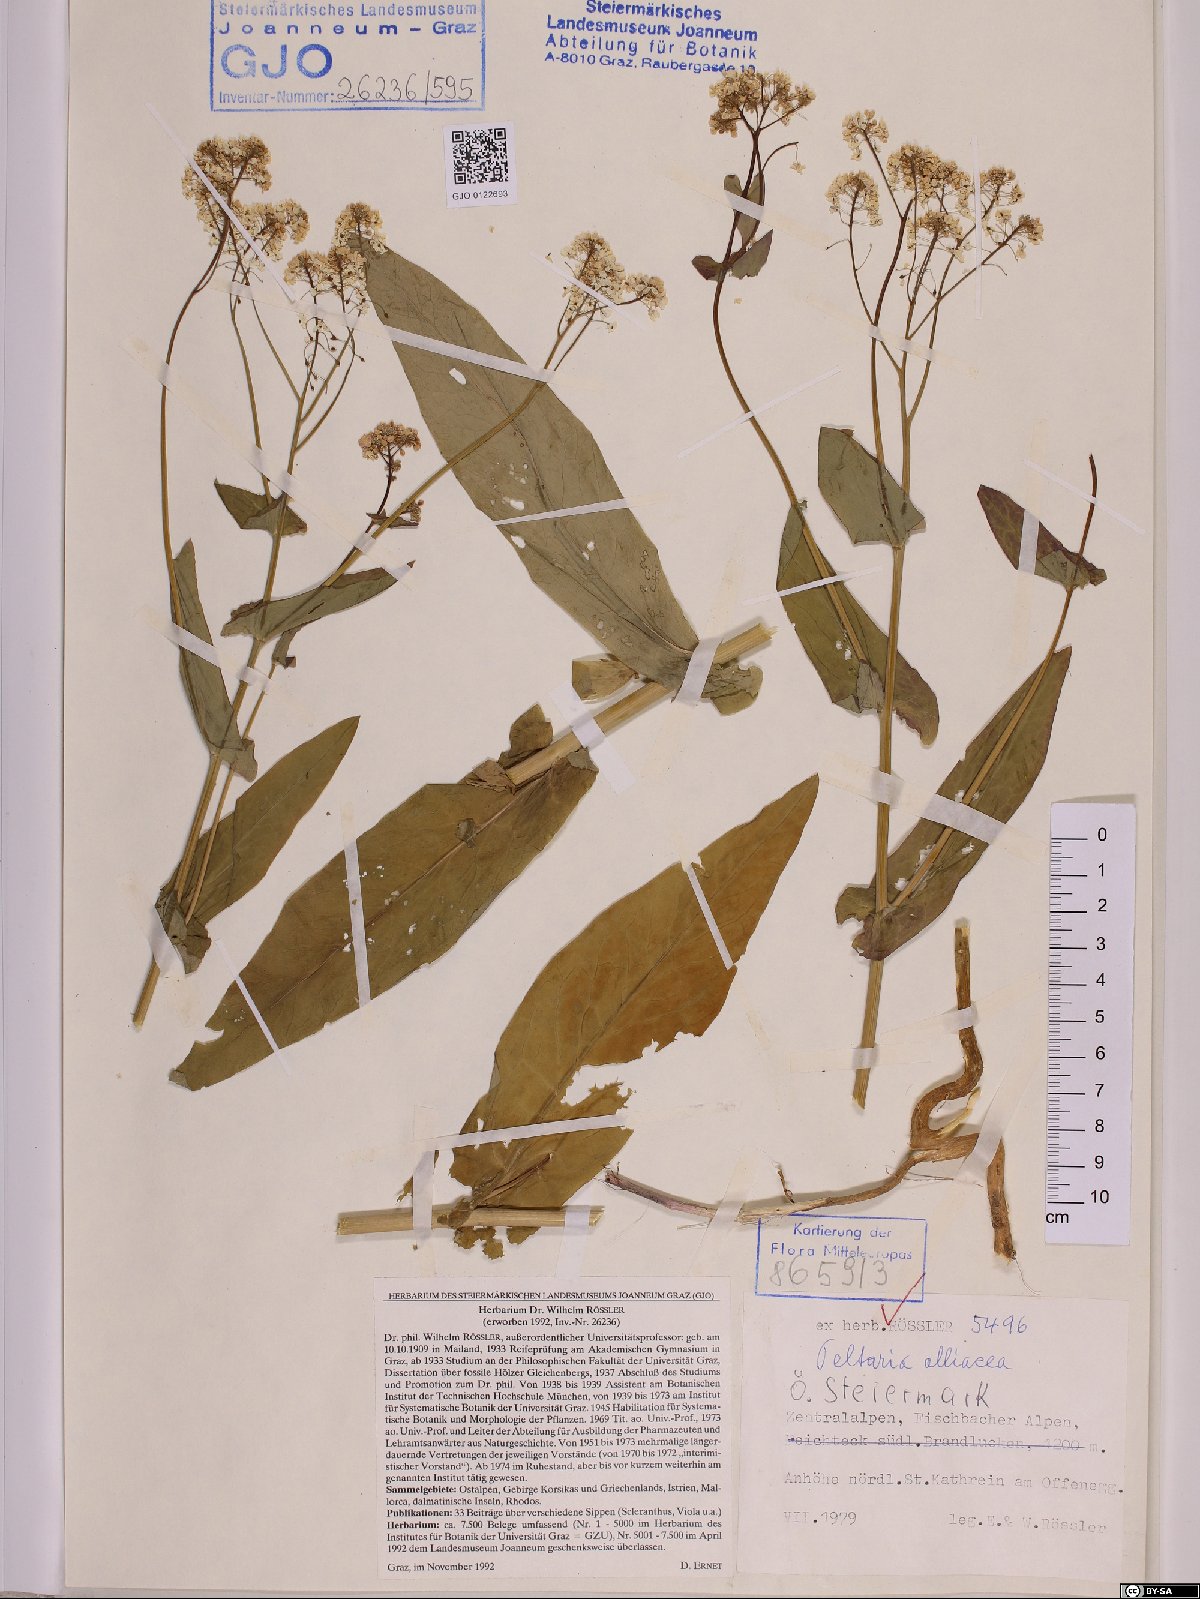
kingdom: Plantae
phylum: Tracheophyta
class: Magnoliopsida
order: Brassicales
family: Brassicaceae
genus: Peltaria
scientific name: Peltaria alliacea
